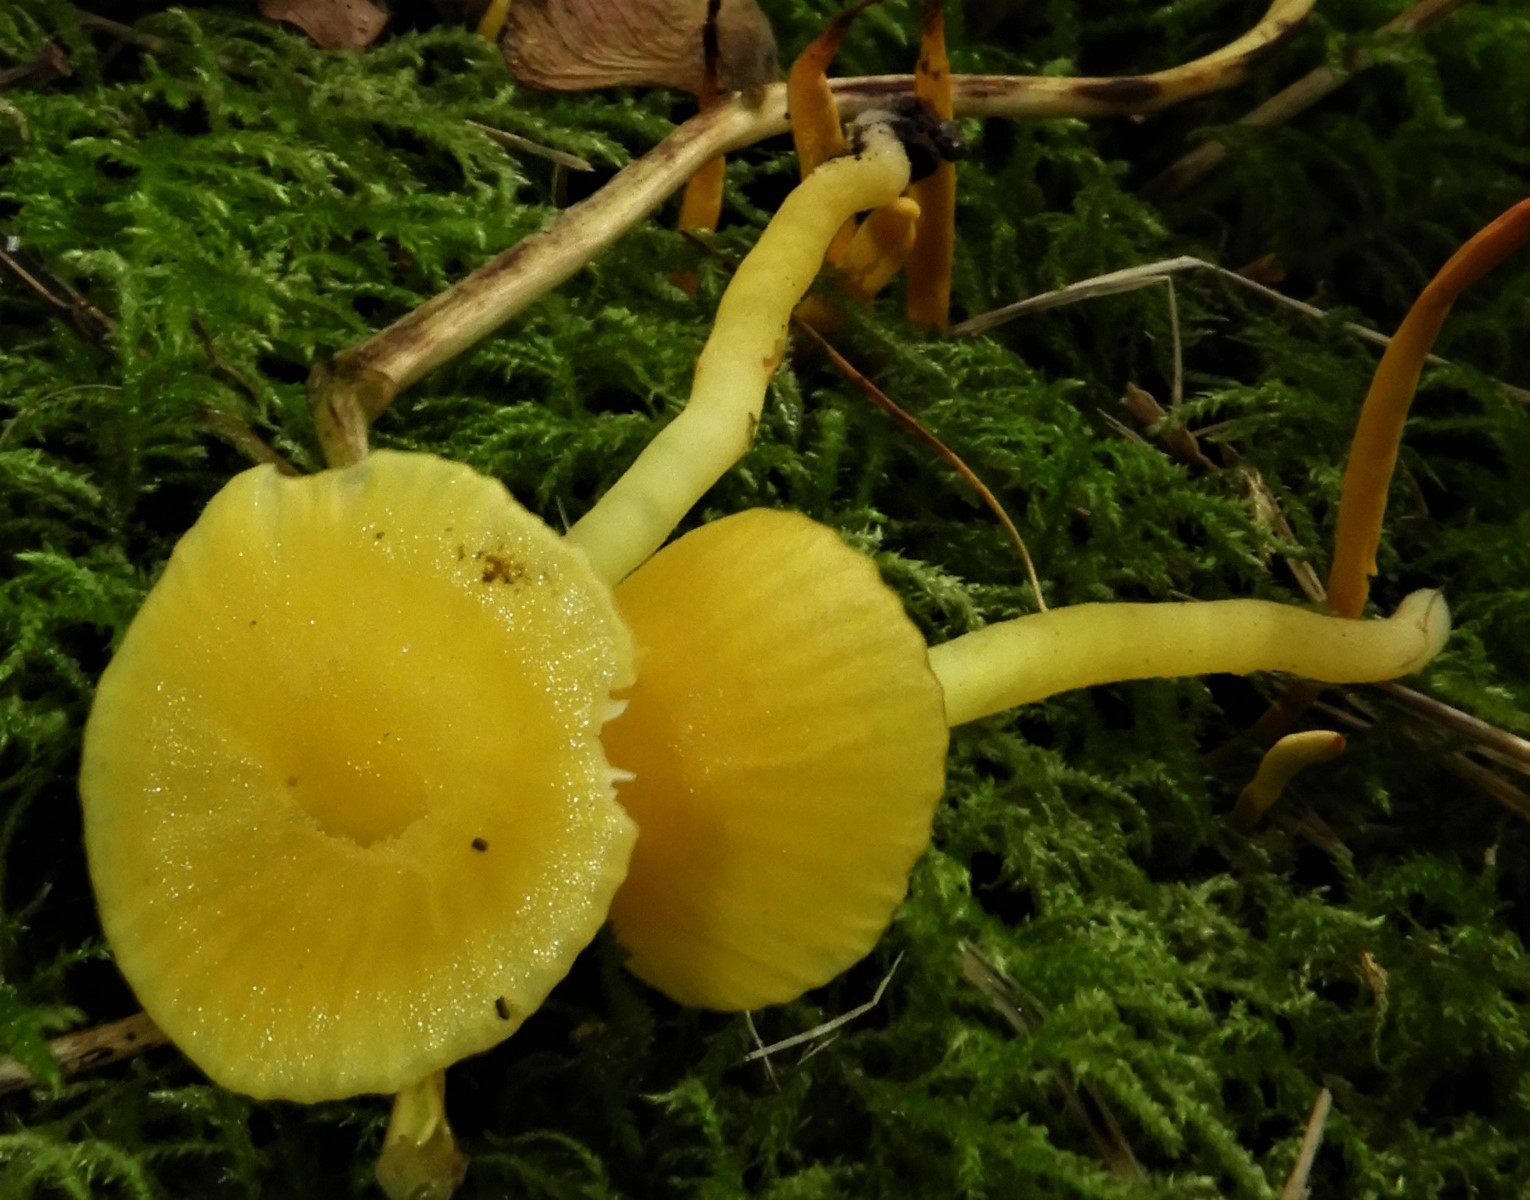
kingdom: Fungi
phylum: Basidiomycota
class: Agaricomycetes
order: Agaricales
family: Hygrophoraceae
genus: Hygrocybe
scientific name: Hygrocybe ceracea
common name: voksgul vokshat
